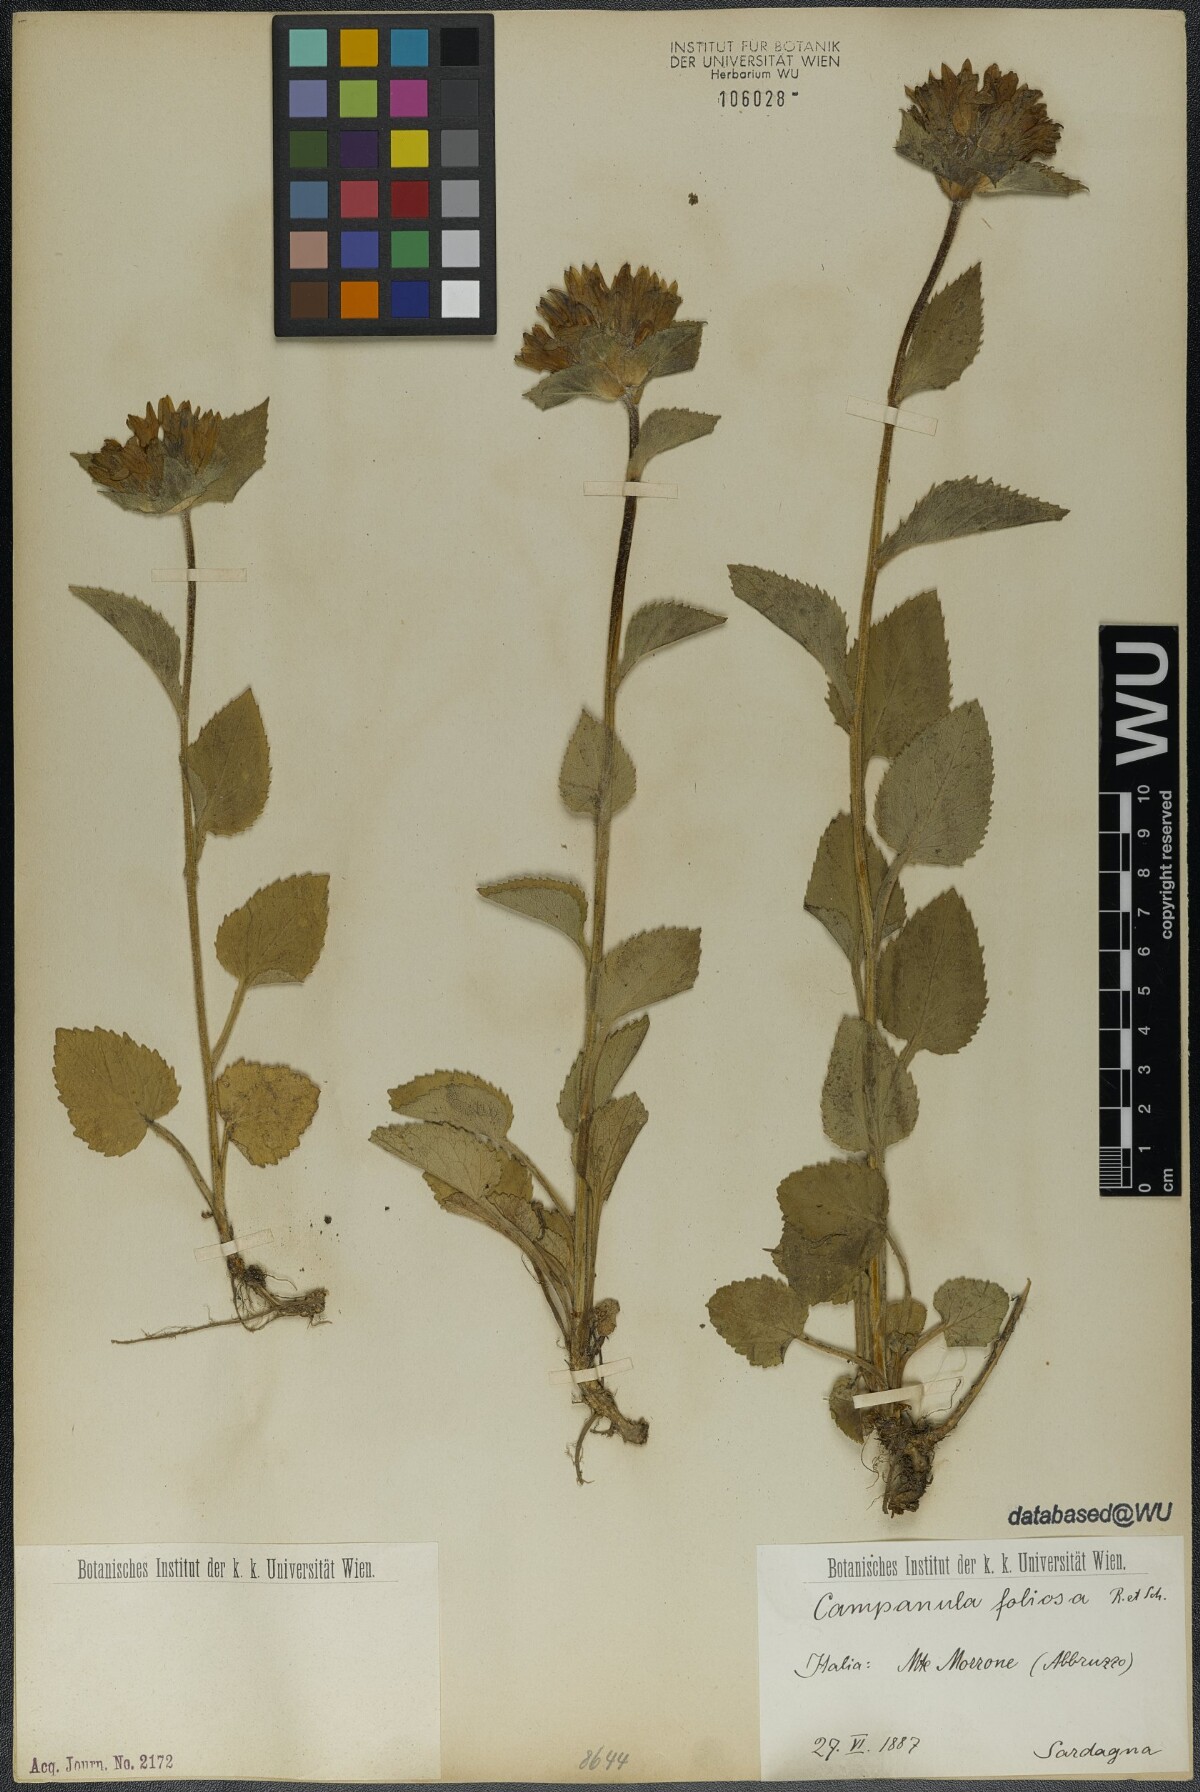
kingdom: Plantae
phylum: Tracheophyta
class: Magnoliopsida
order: Asterales
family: Campanulaceae
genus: Campanula
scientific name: Campanula foliosa
